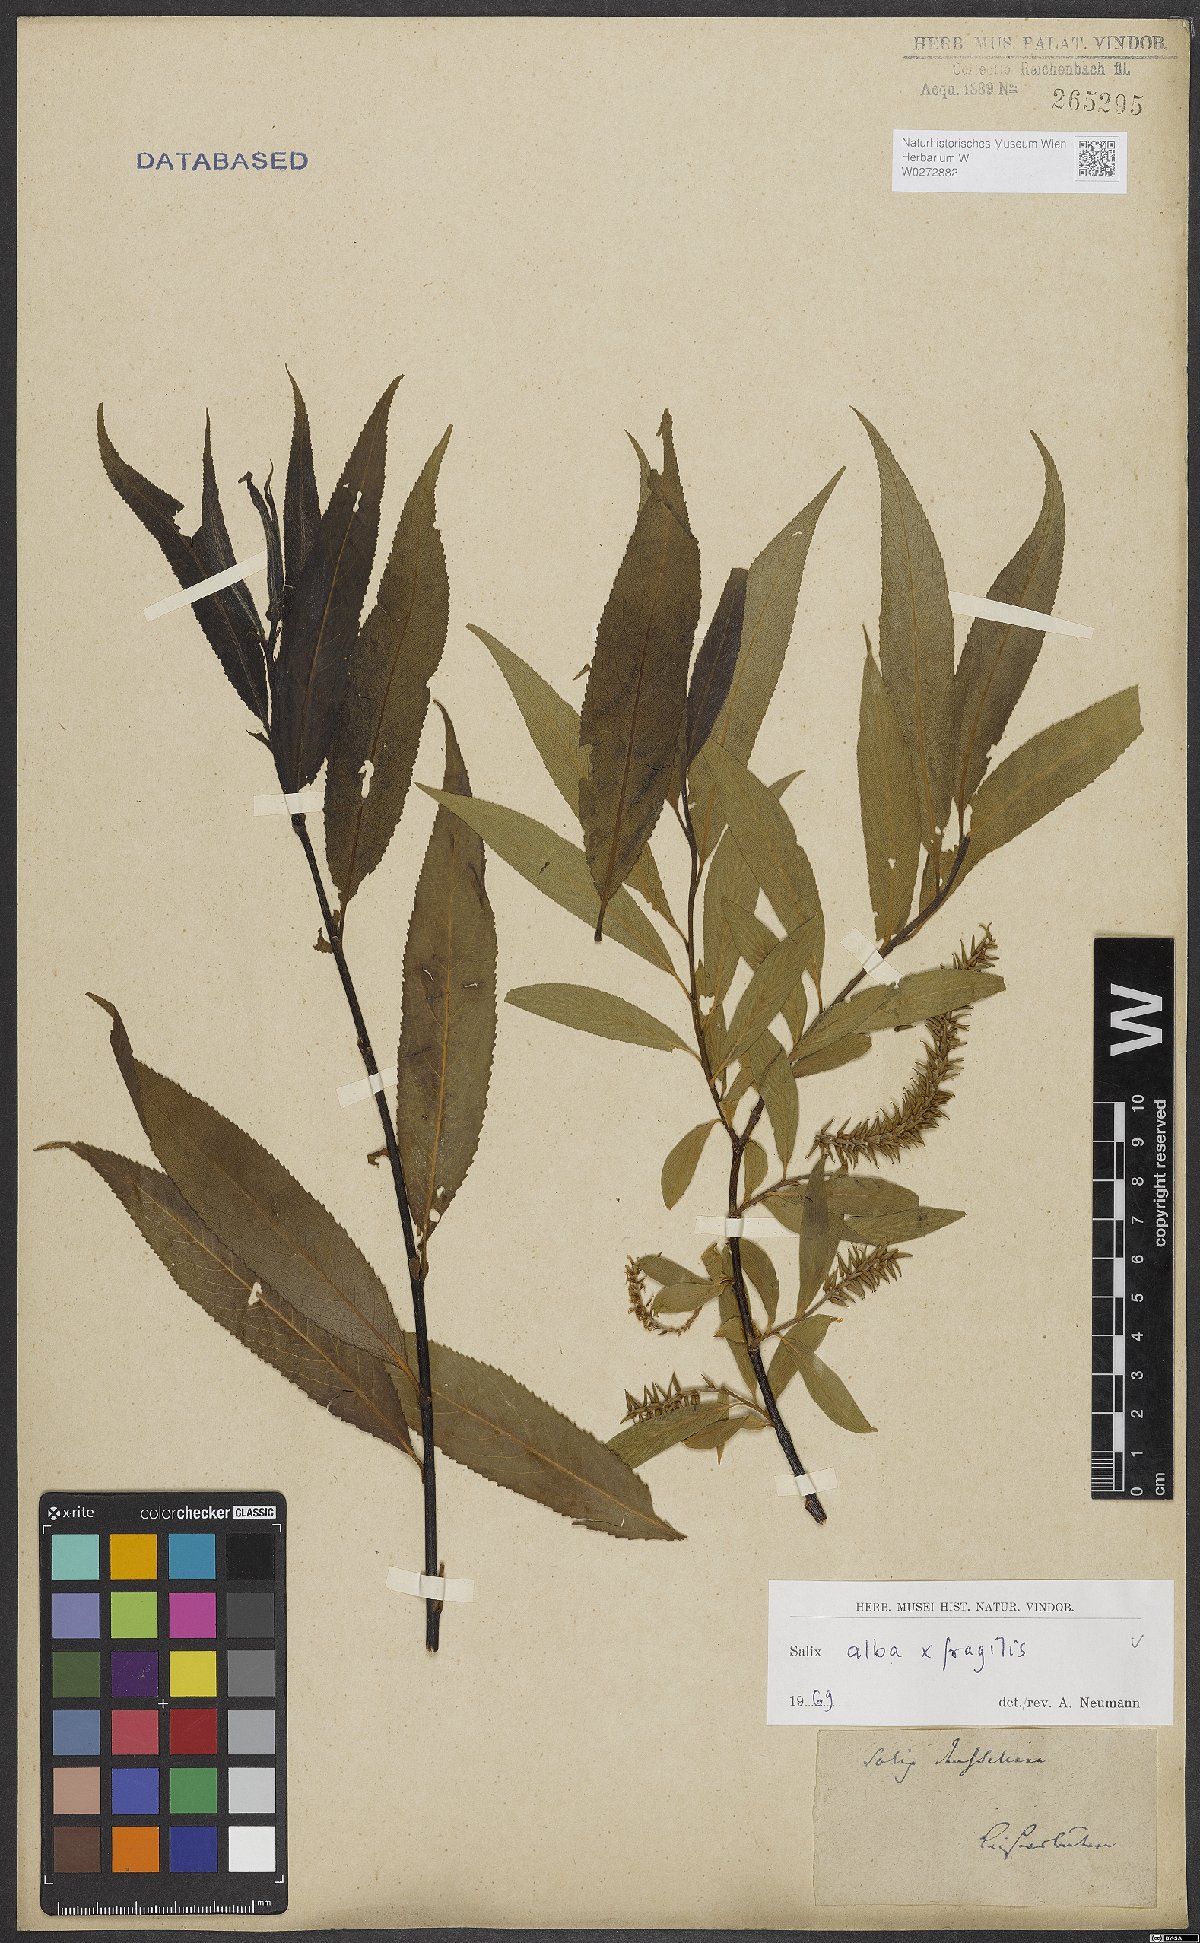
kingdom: Plantae
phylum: Tracheophyta
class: Magnoliopsida
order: Malpighiales
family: Salicaceae
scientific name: Salicaceae
